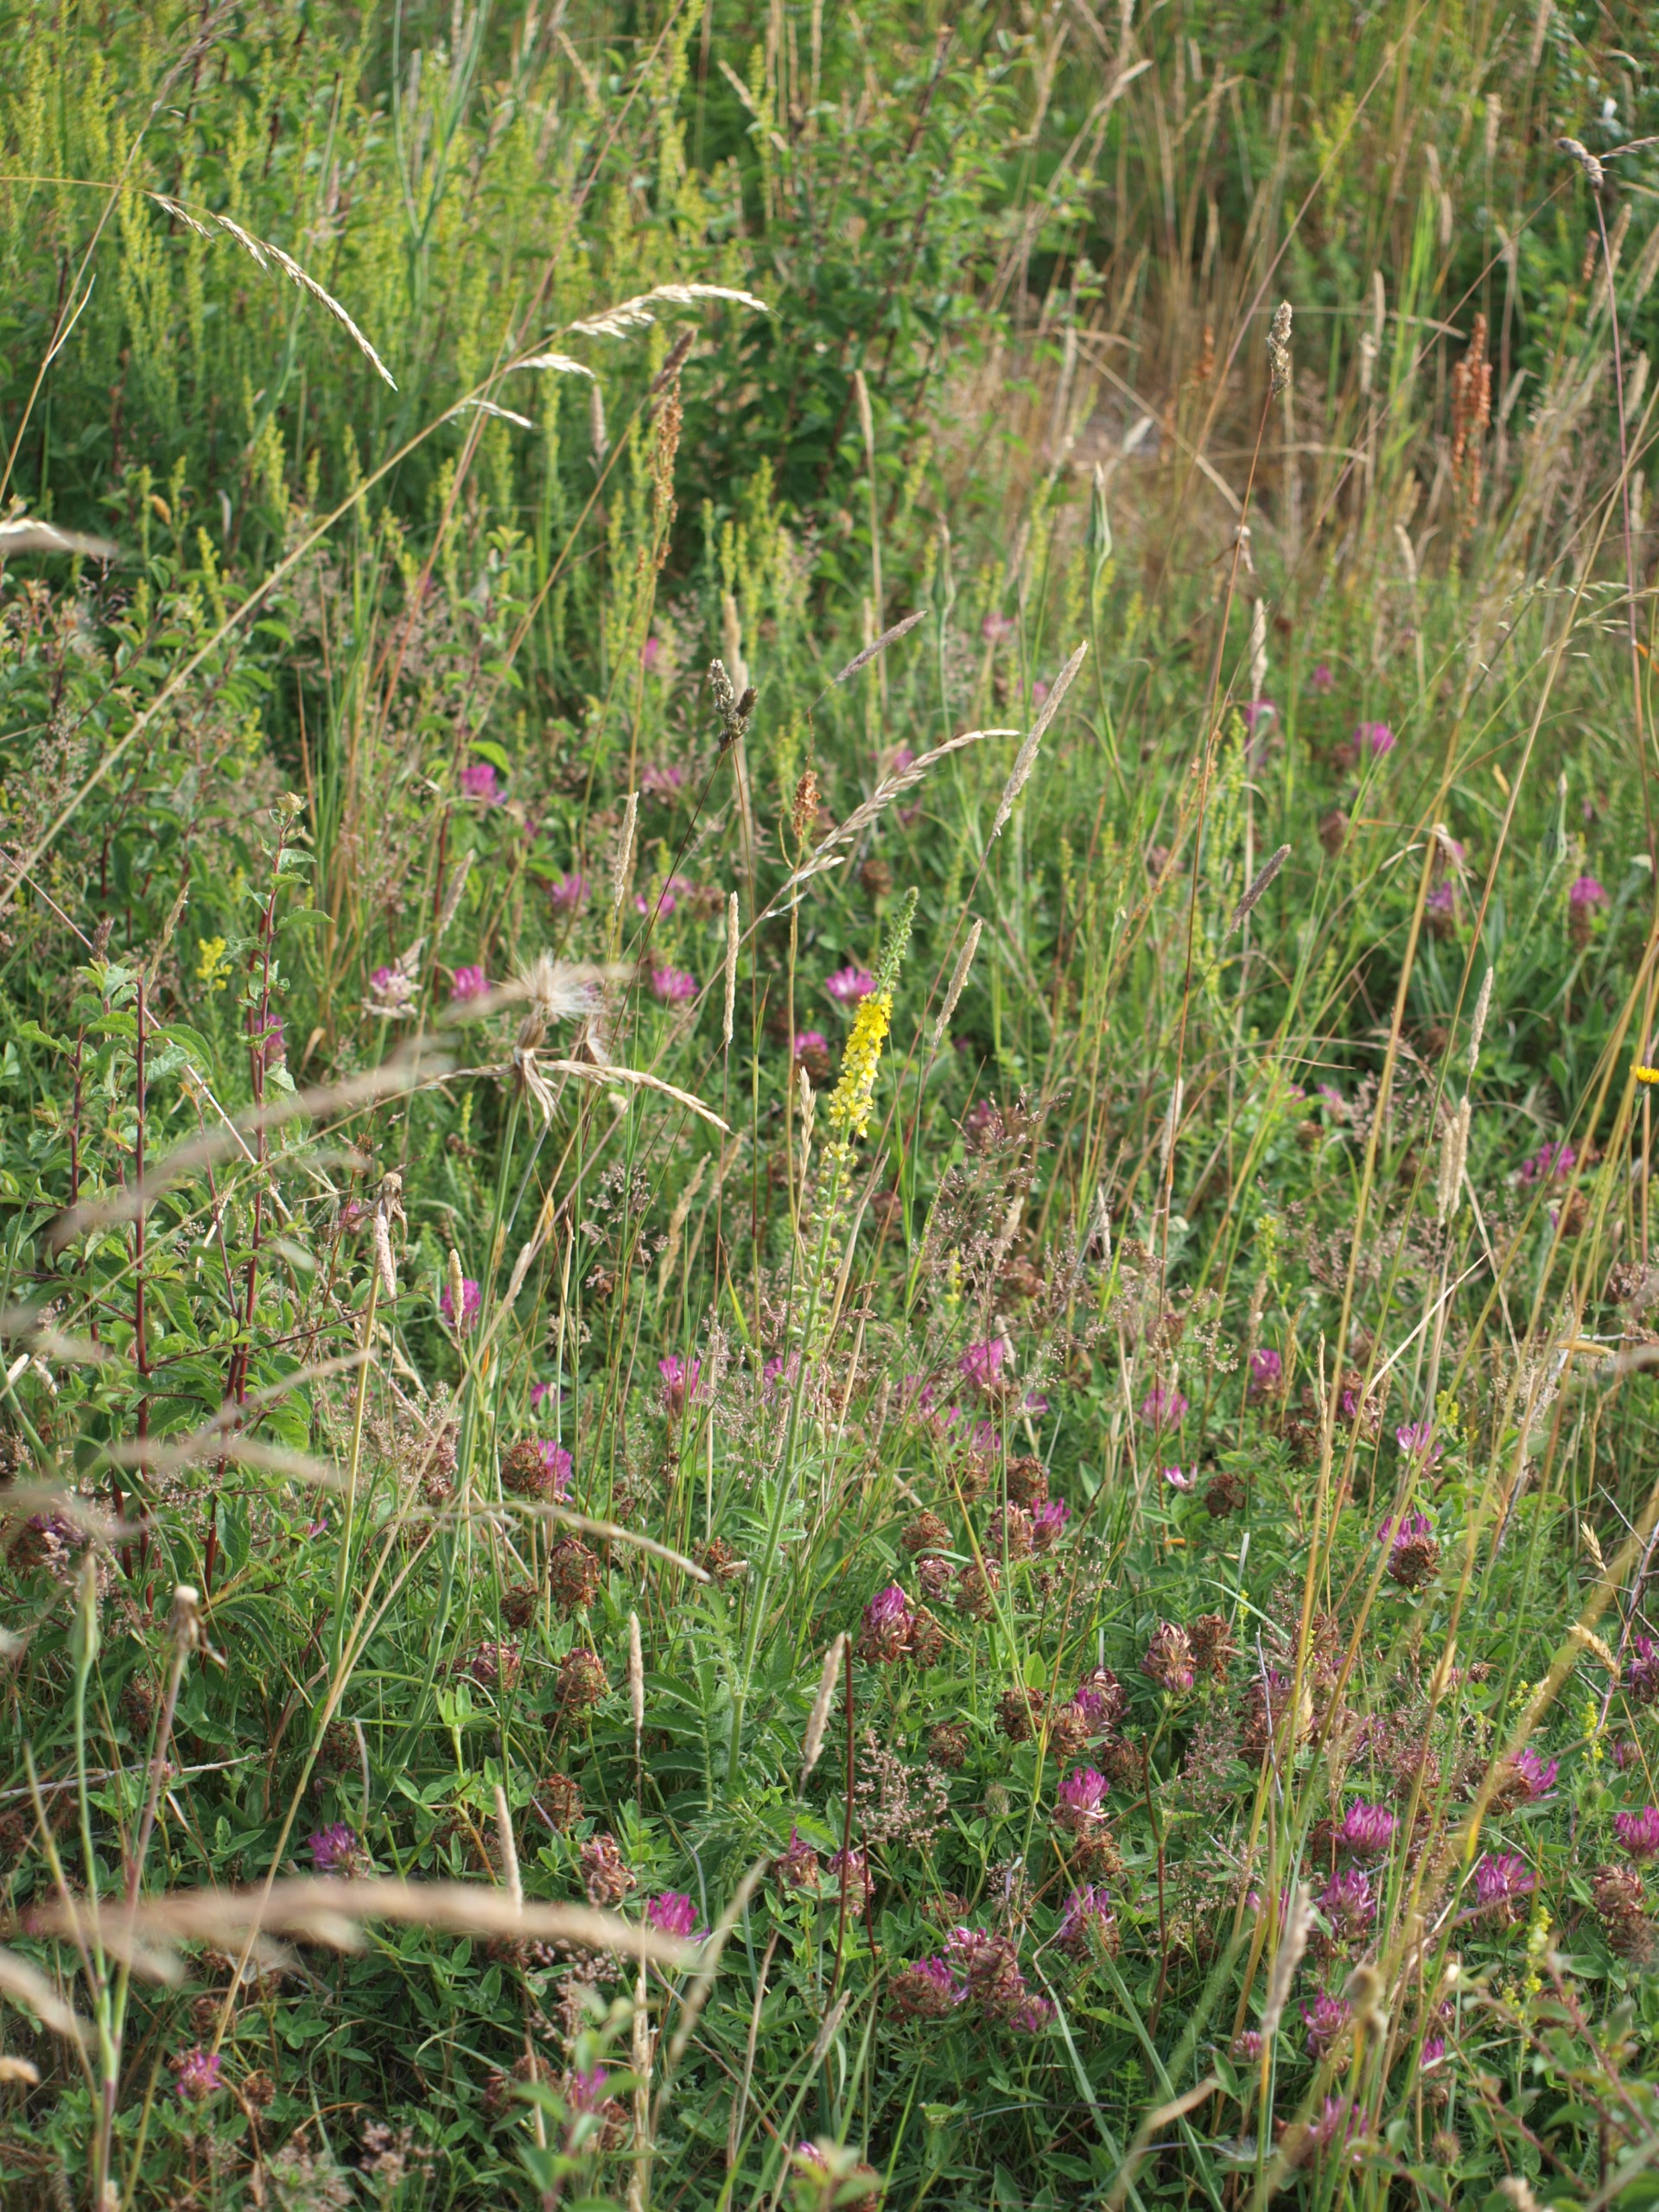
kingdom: Plantae
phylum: Tracheophyta
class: Magnoliopsida
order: Rosales
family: Rosaceae
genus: Agrimonia
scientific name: Agrimonia
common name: Agermåneslægten
